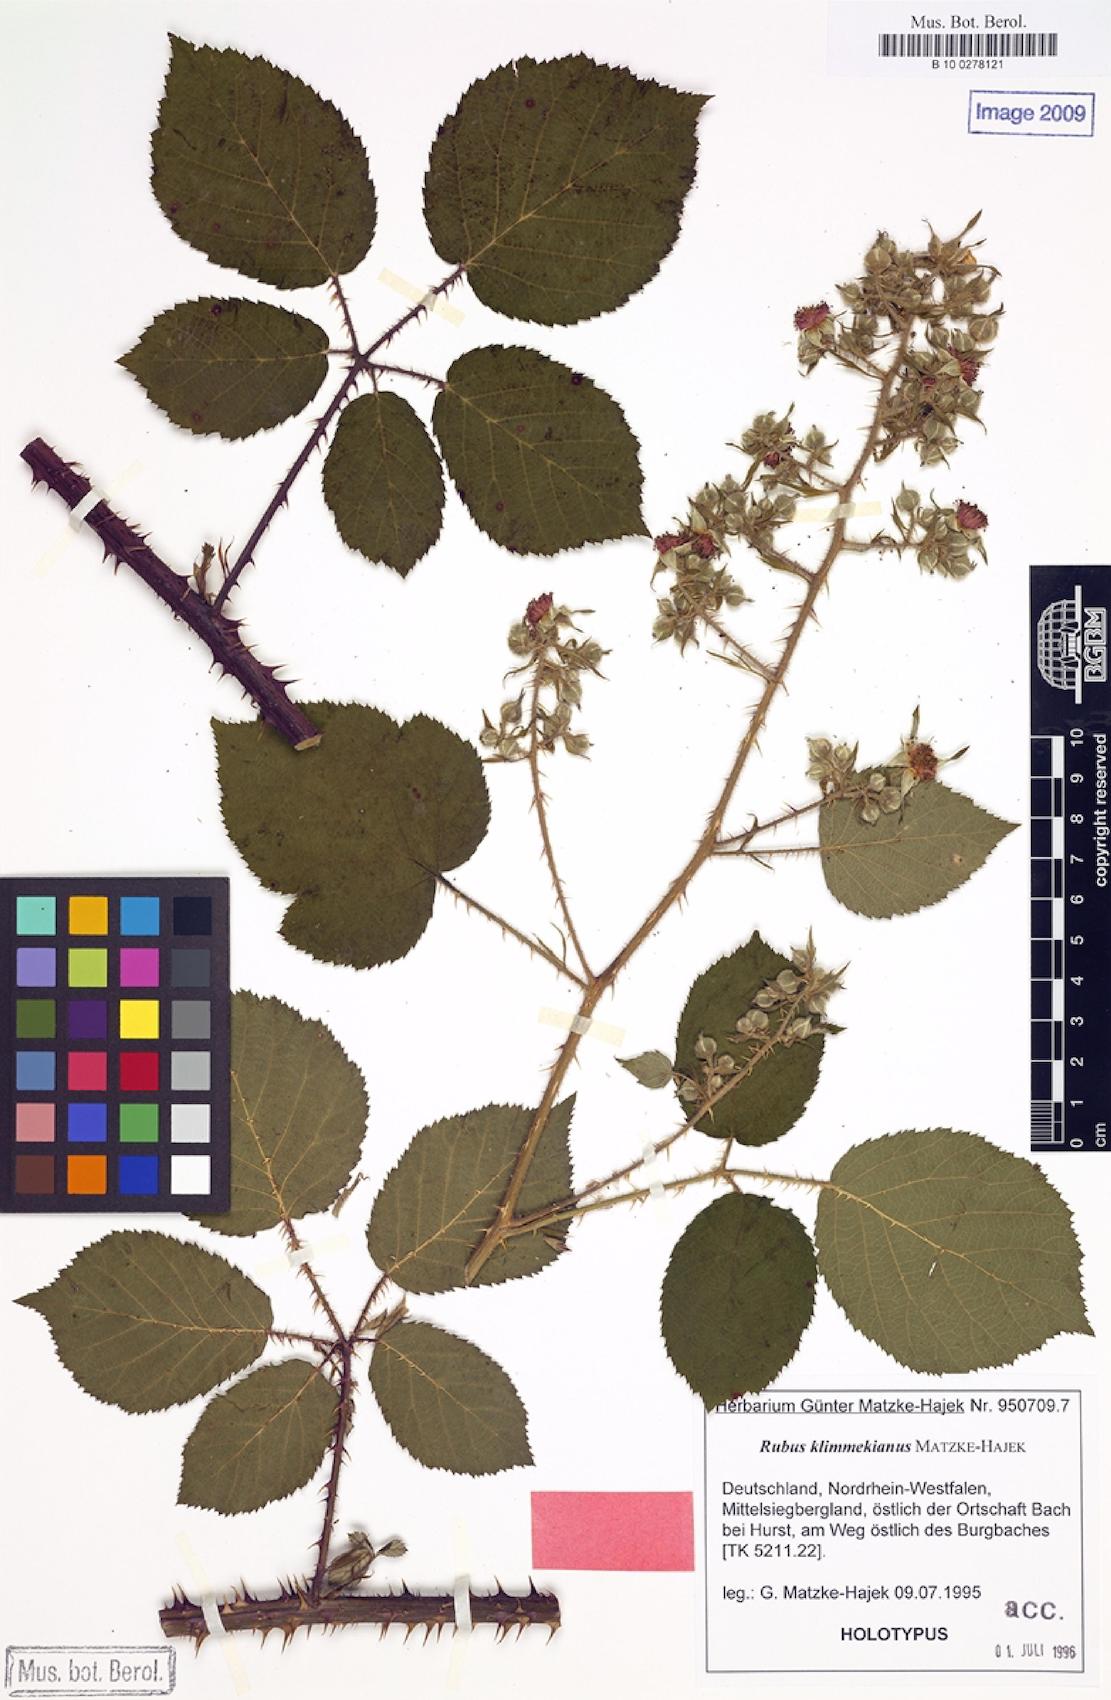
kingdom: Plantae
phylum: Tracheophyta
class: Magnoliopsida
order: Rosales
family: Rosaceae
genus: Rubus
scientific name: Rubus klimmekianus
